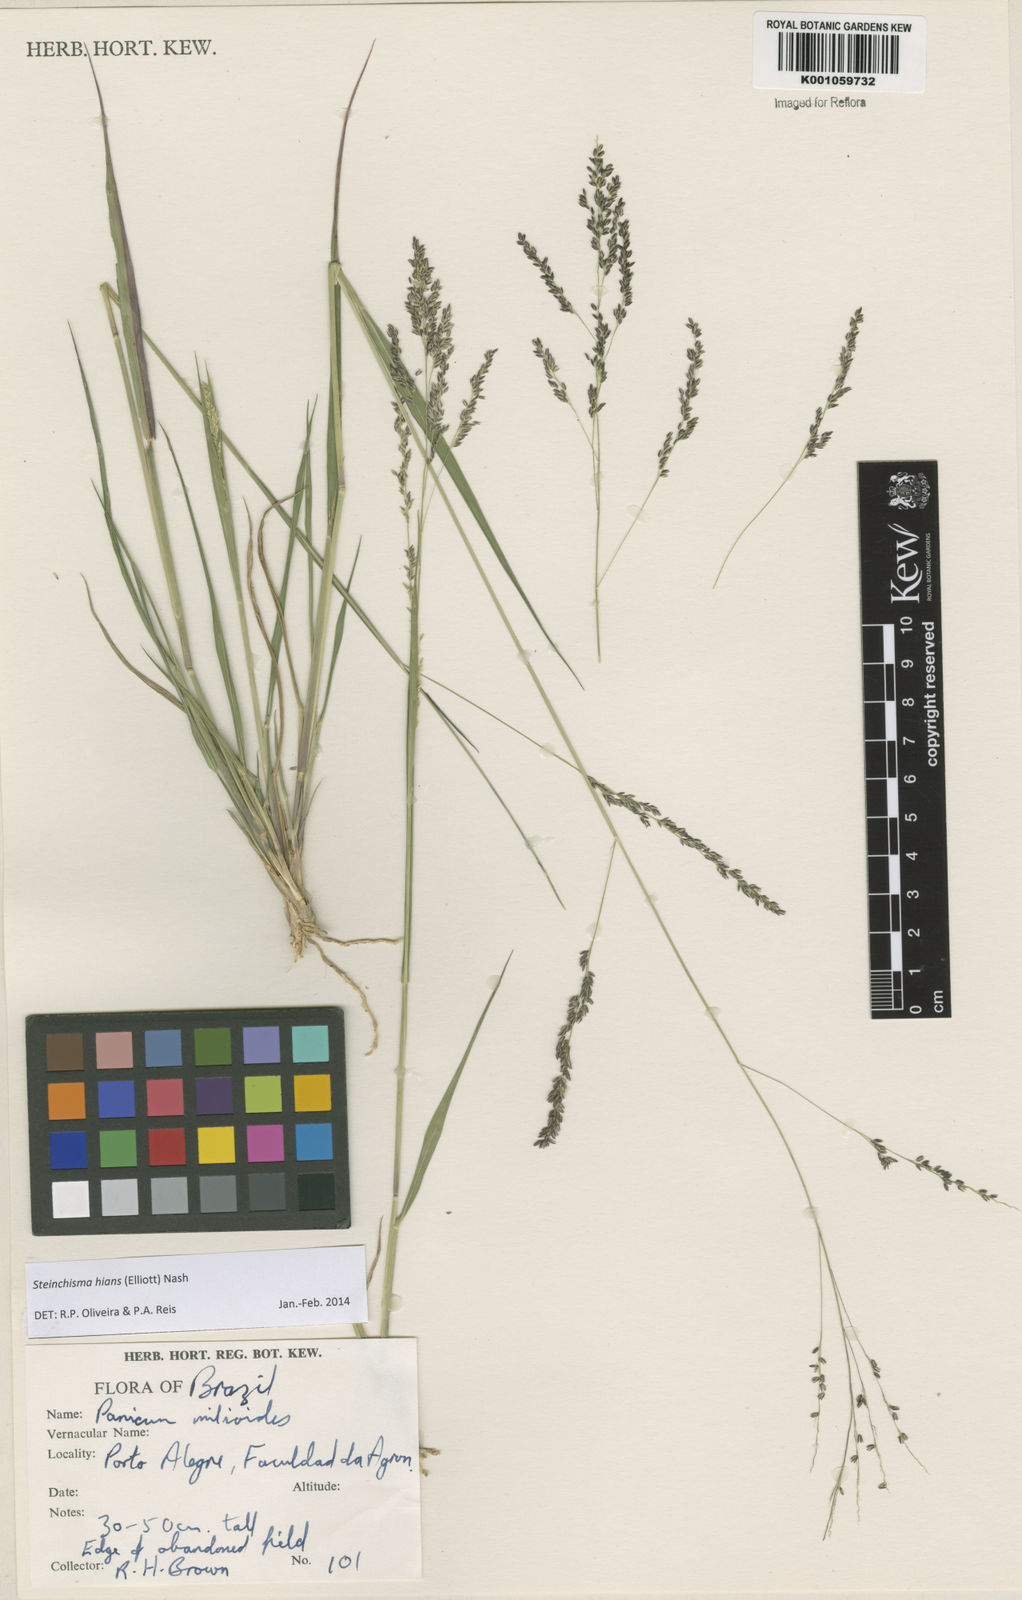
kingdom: Plantae
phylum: Tracheophyta
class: Liliopsida
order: Poales
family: Poaceae
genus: Steinchisma
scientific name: Steinchisma hians
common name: Gaping panic grass
